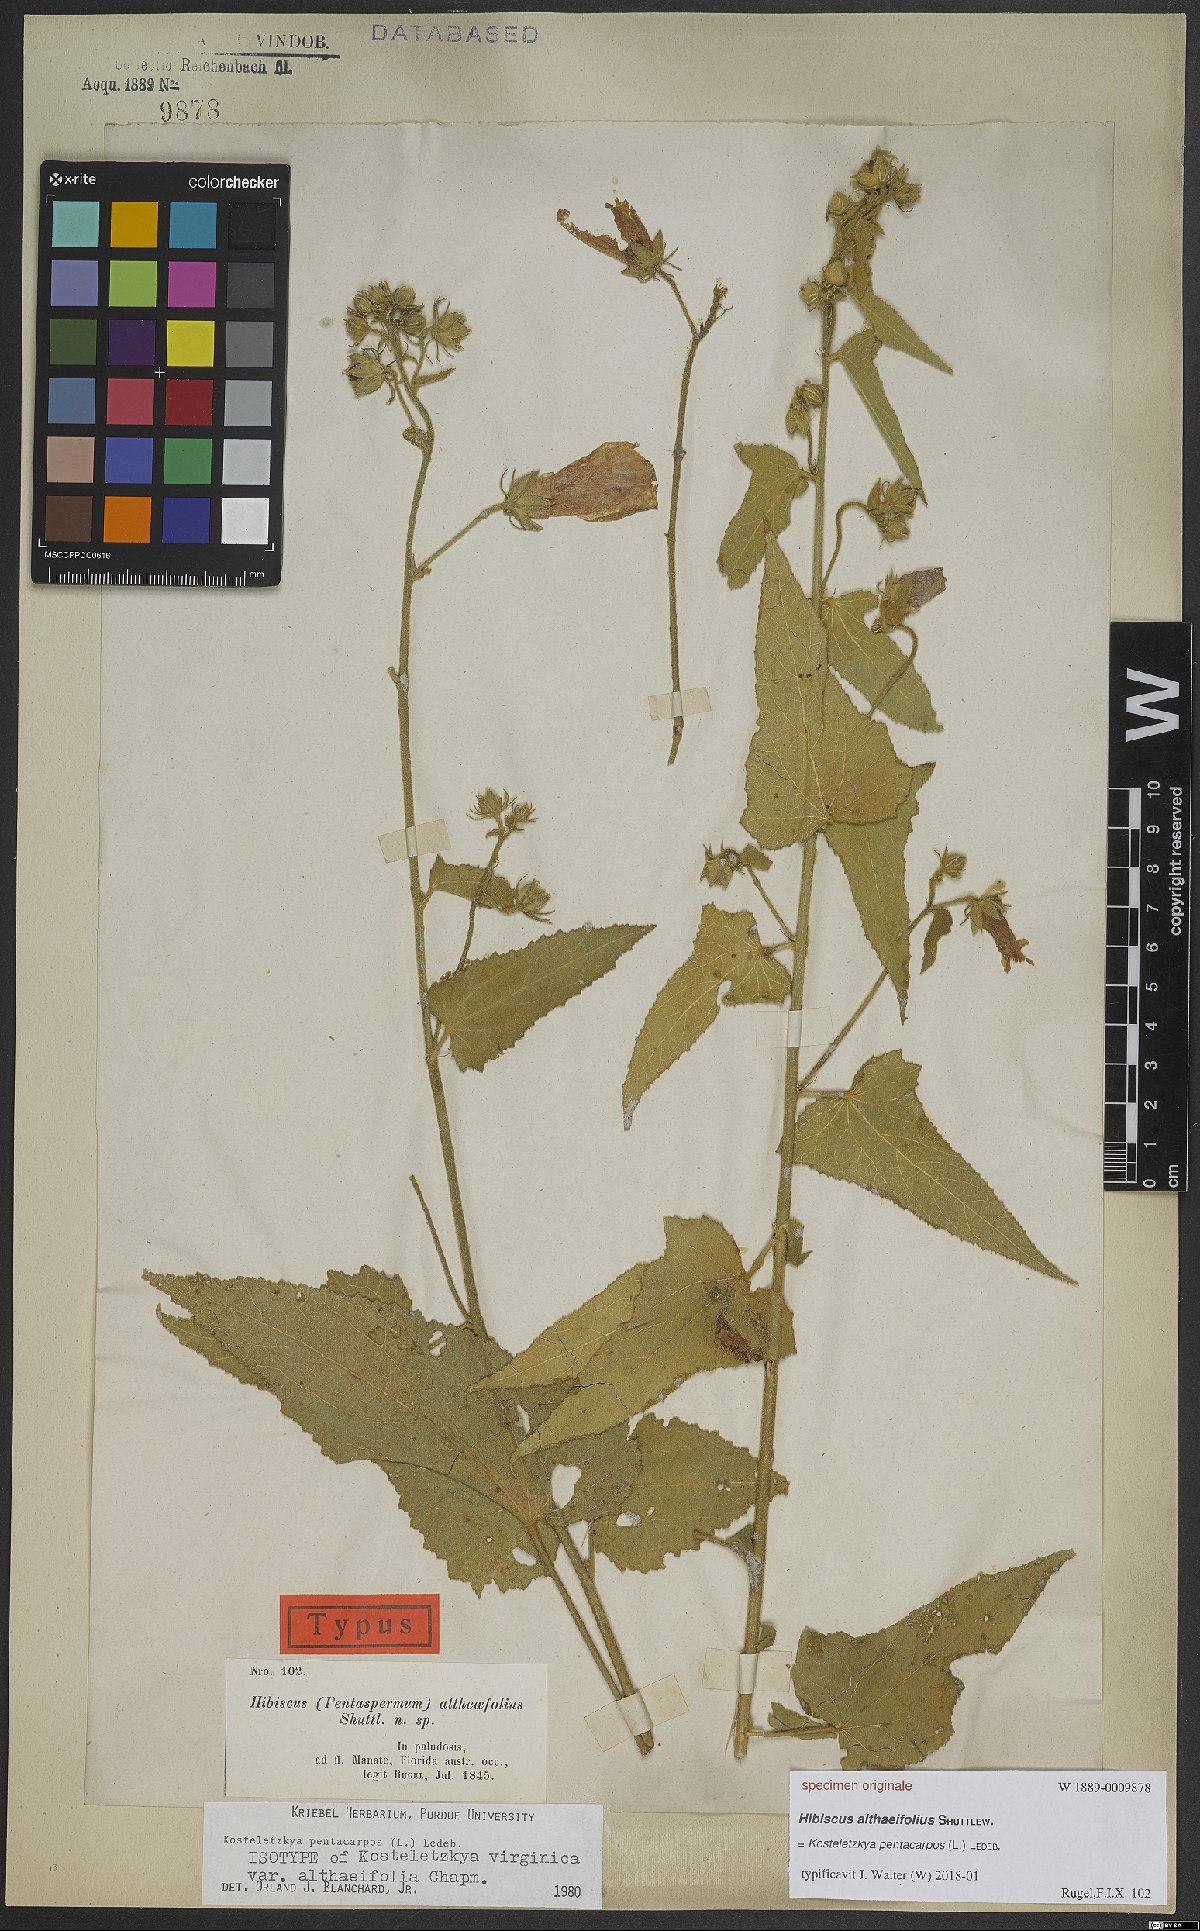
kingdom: Plantae
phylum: Tracheophyta
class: Magnoliopsida
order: Malvales
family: Malvaceae
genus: Kosteletzkya
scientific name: Kosteletzkya pentacarpos
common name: Virginia saltmarsh mallow
